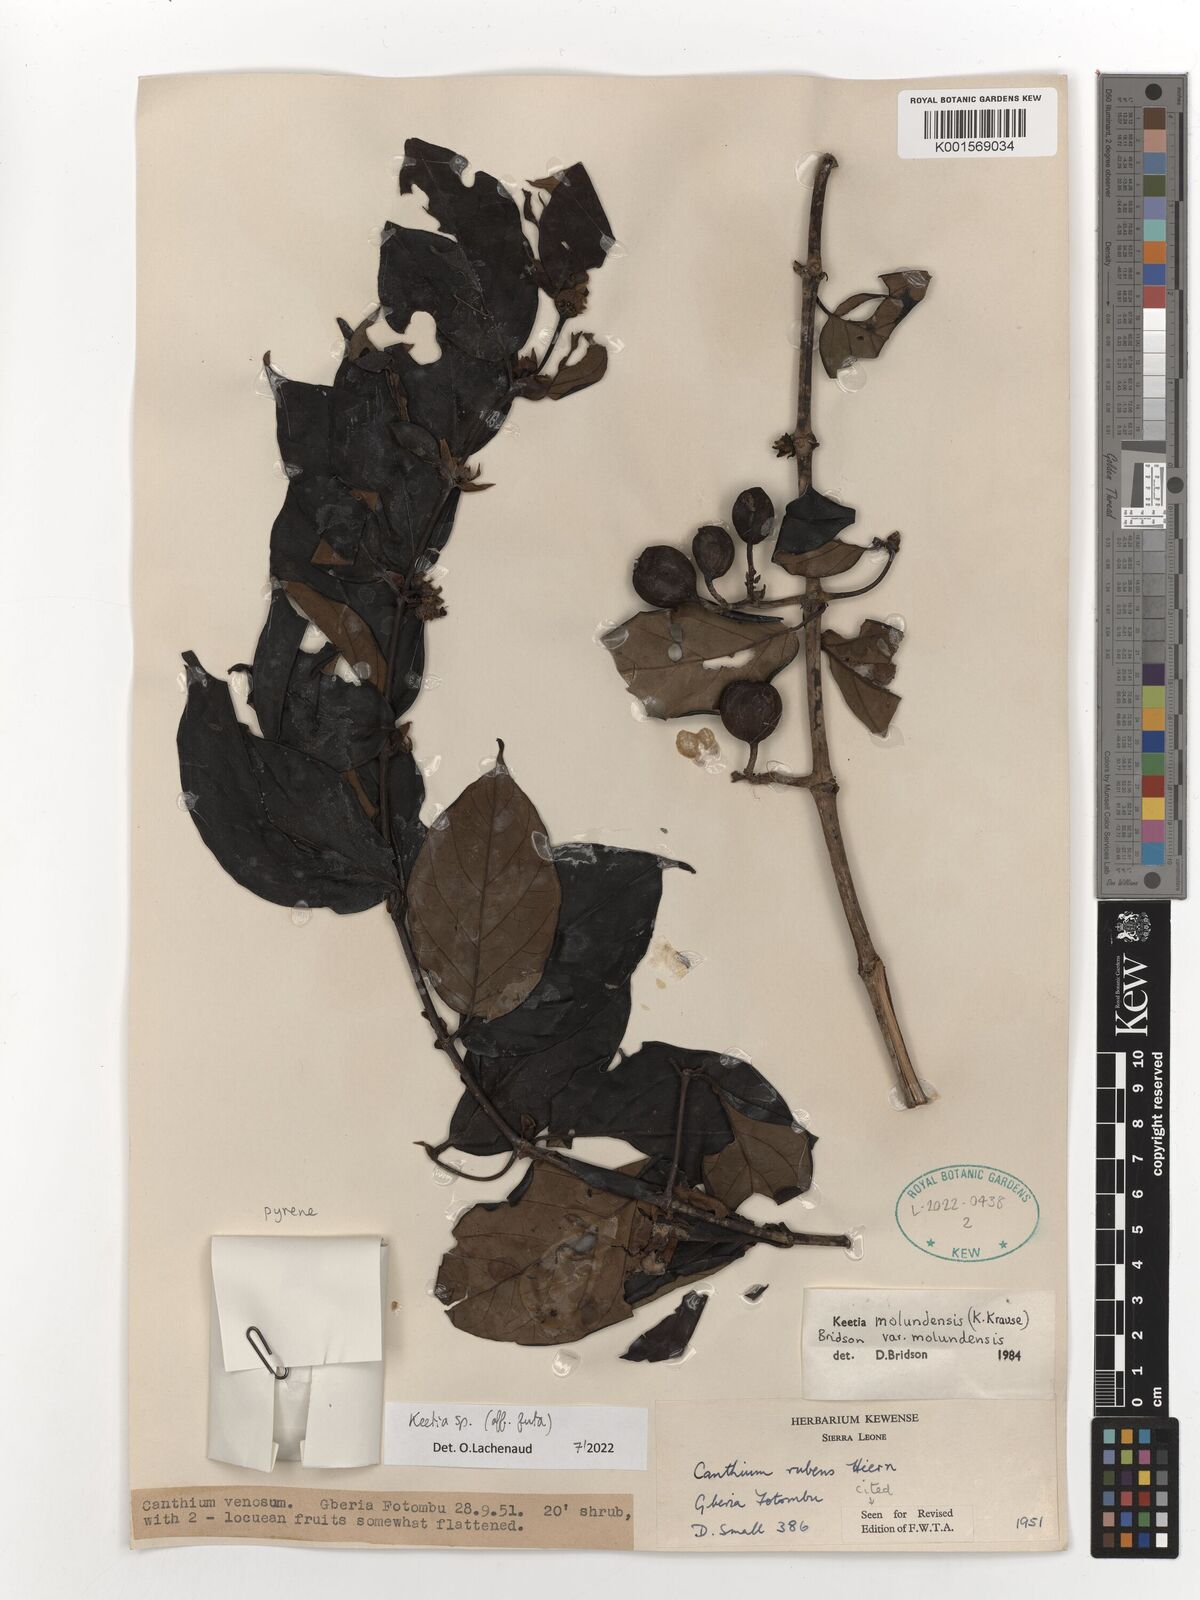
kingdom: Plantae
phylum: Tracheophyta
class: Magnoliopsida
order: Gentianales
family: Rubiaceae
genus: Keetia
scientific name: Keetia futa
